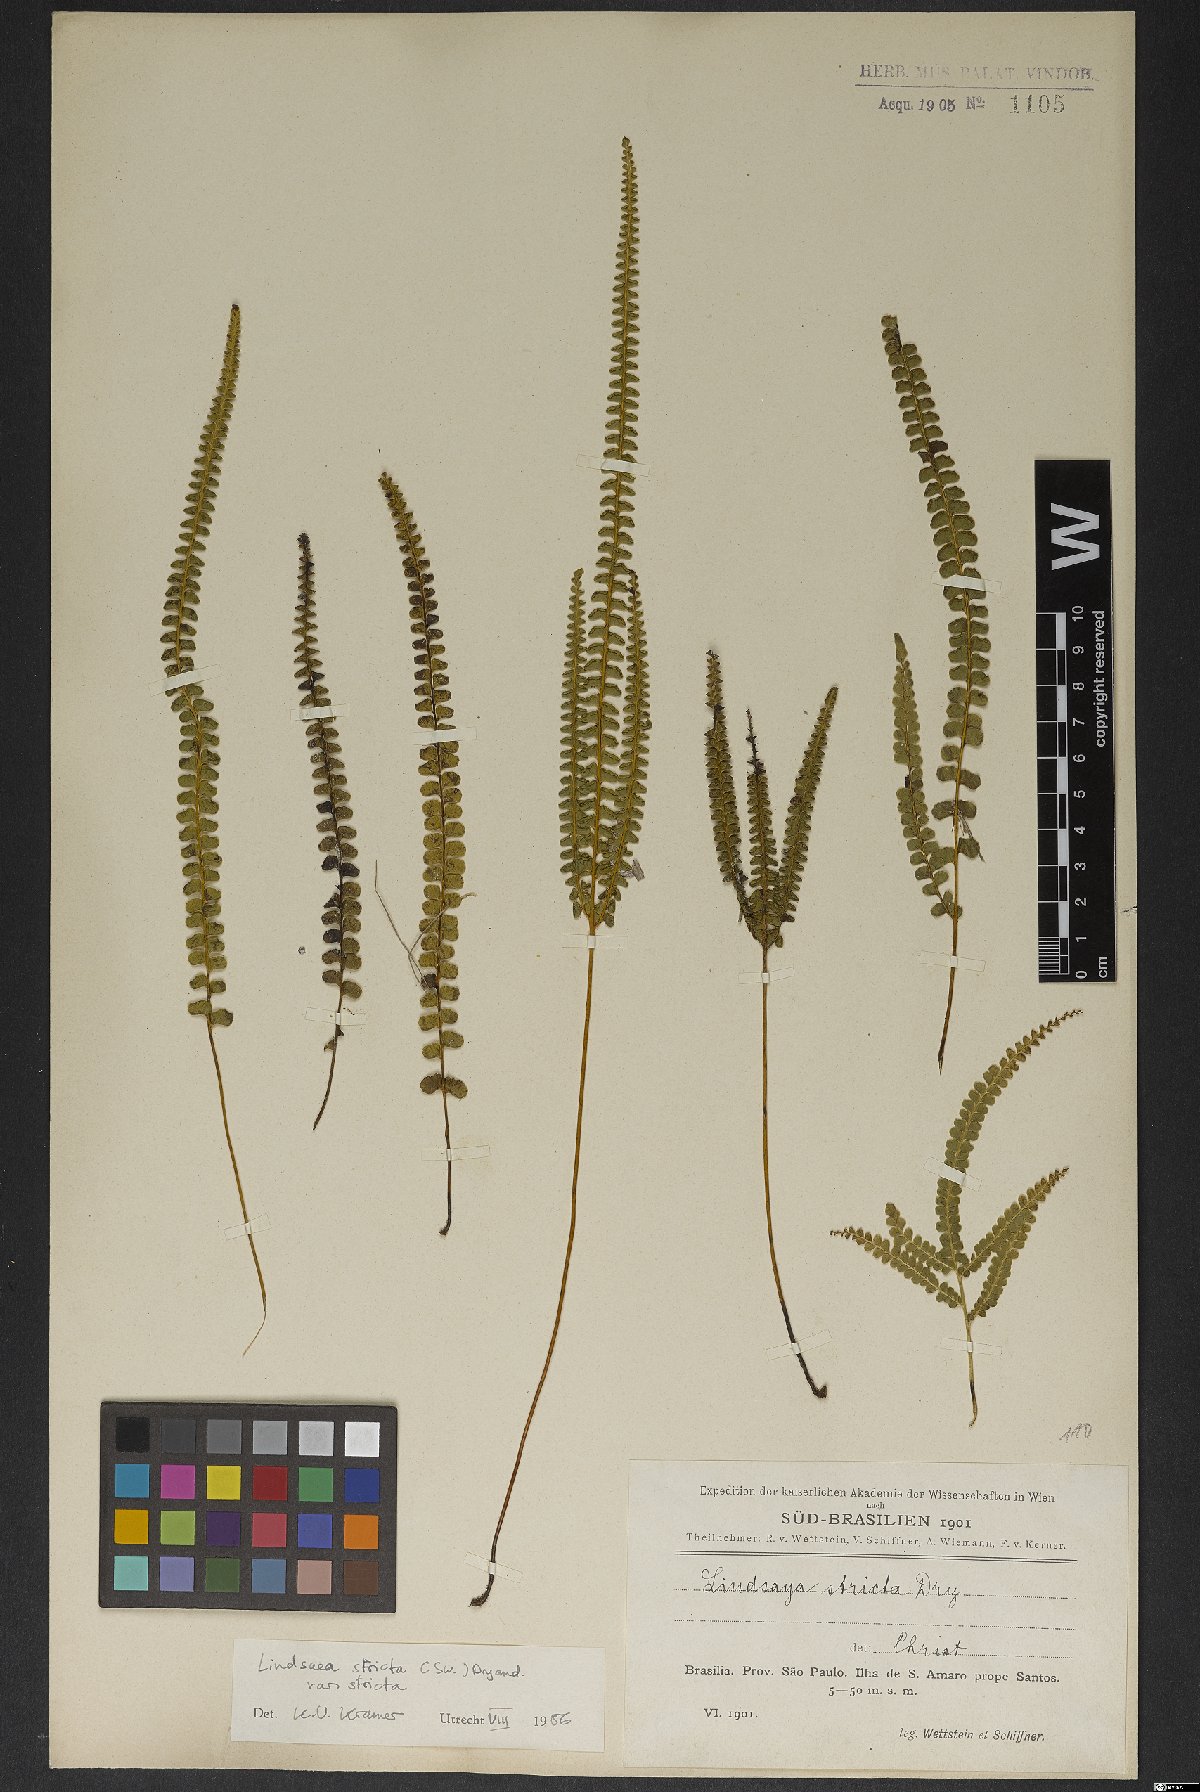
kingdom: Plantae
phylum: Tracheophyta
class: Polypodiopsida
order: Polypodiales
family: Lindsaeaceae
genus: Lindsaea
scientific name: Lindsaea stricta
